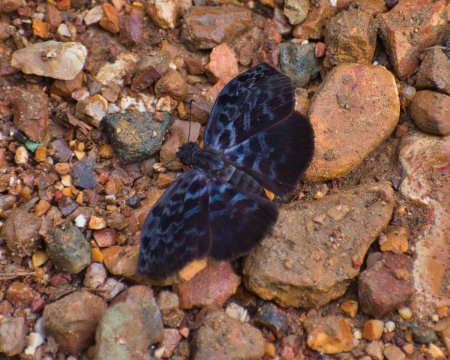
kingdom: Animalia
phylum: Arthropoda
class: Insecta
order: Lepidoptera
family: Hesperiidae
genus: Cycloglypha
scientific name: Cycloglypha tisias
